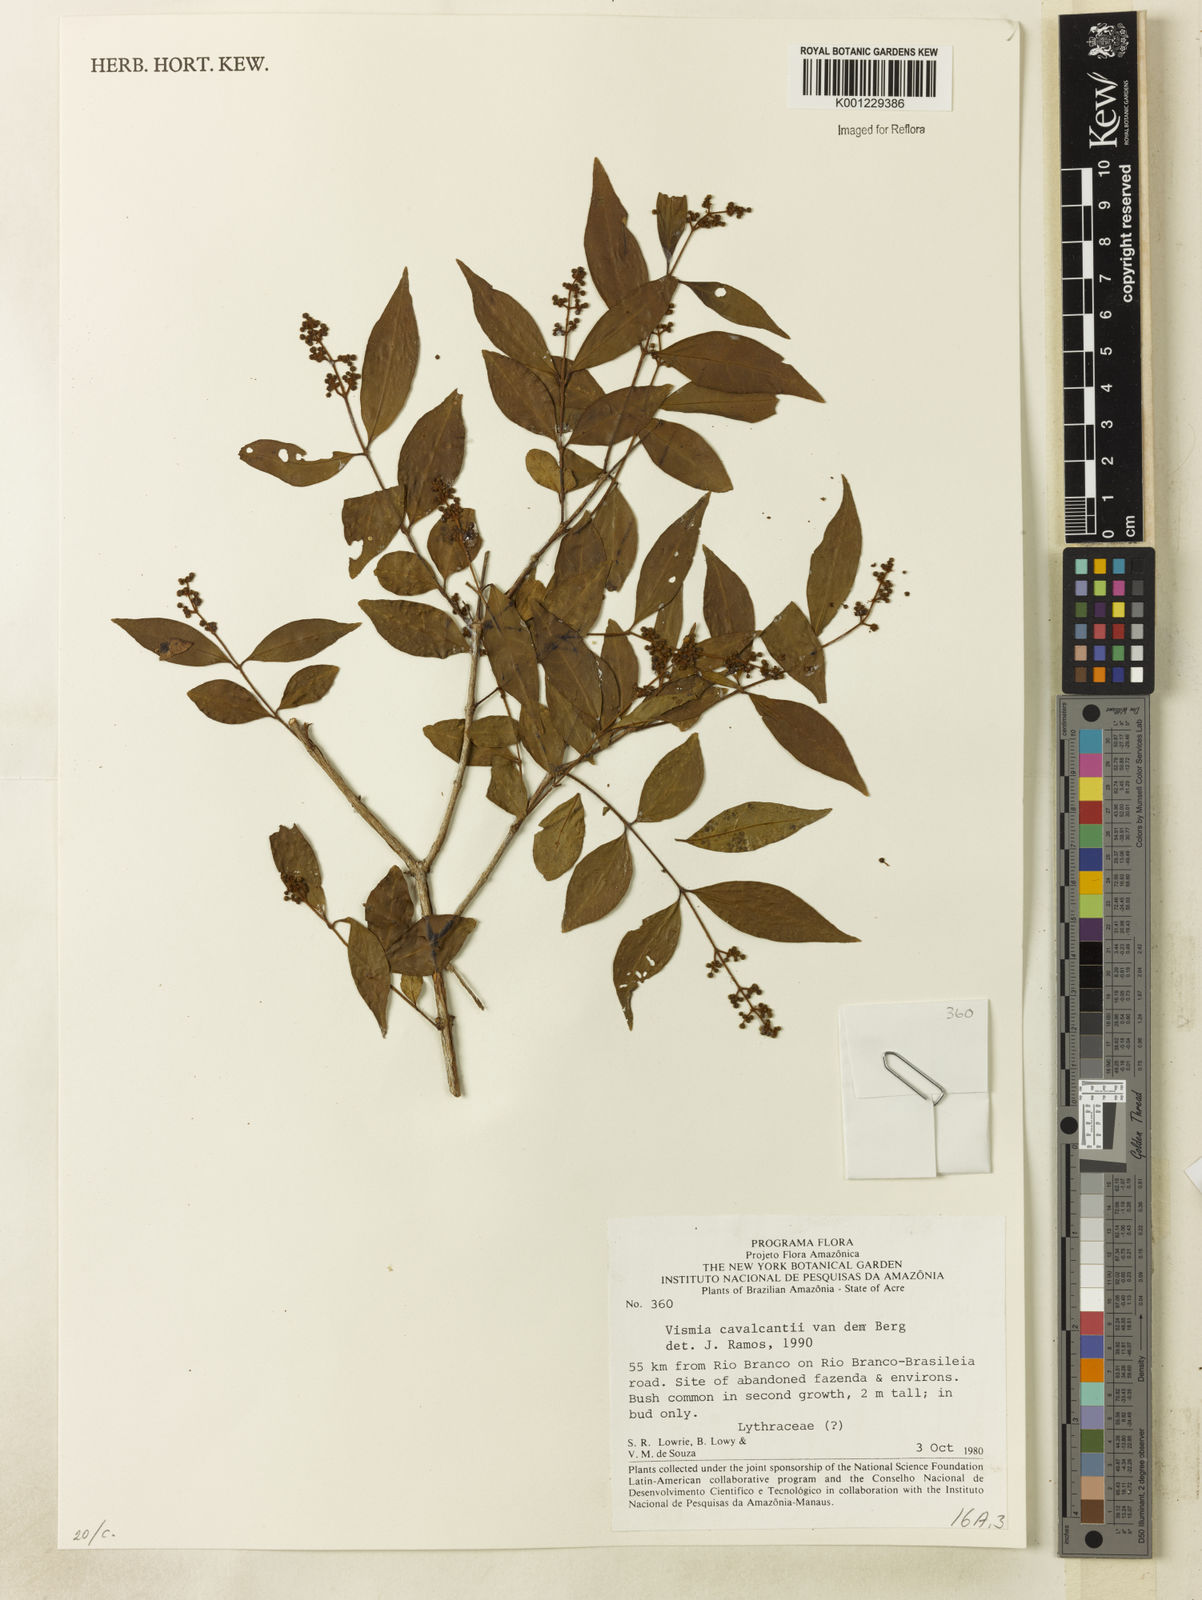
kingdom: Plantae
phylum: Tracheophyta
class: Magnoliopsida
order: Malpighiales
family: Hypericaceae
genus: Vismia
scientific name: Vismia cavalcantei
